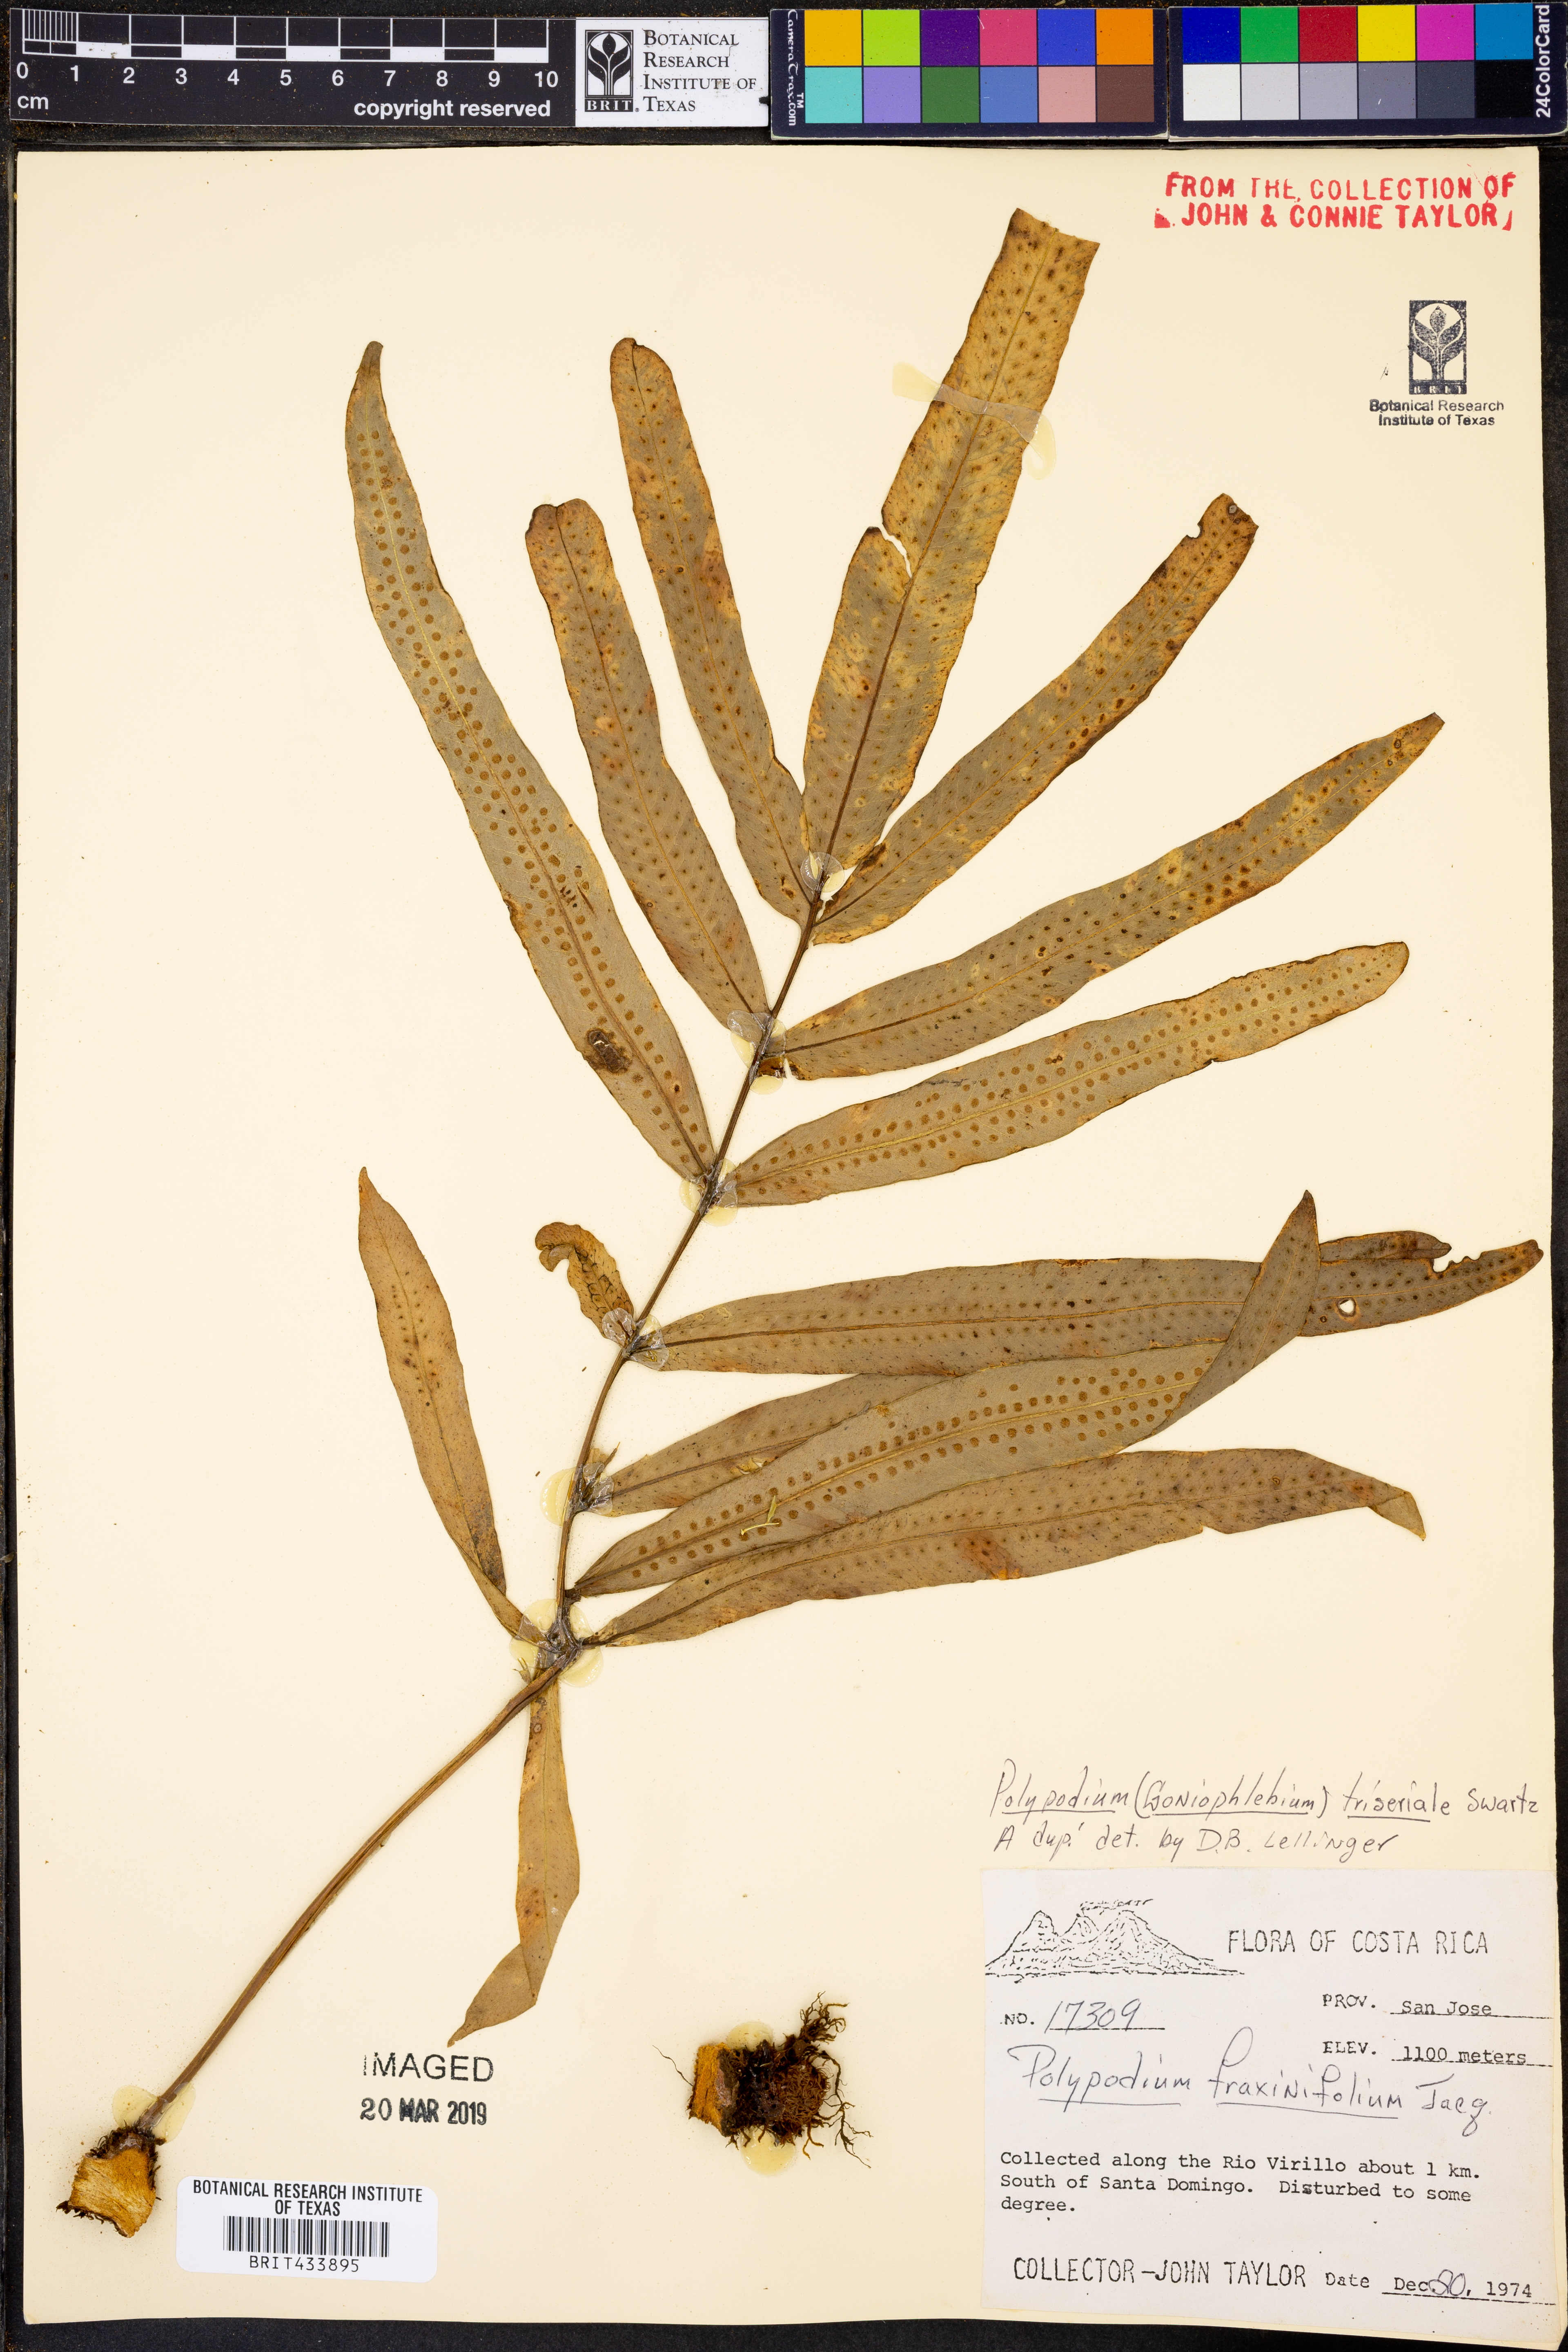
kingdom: Plantae
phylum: Tracheophyta
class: Polypodiopsida
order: Polypodiales
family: Polypodiaceae
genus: Serpocaulon
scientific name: Serpocaulon triseriale
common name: Angle-vein fern
